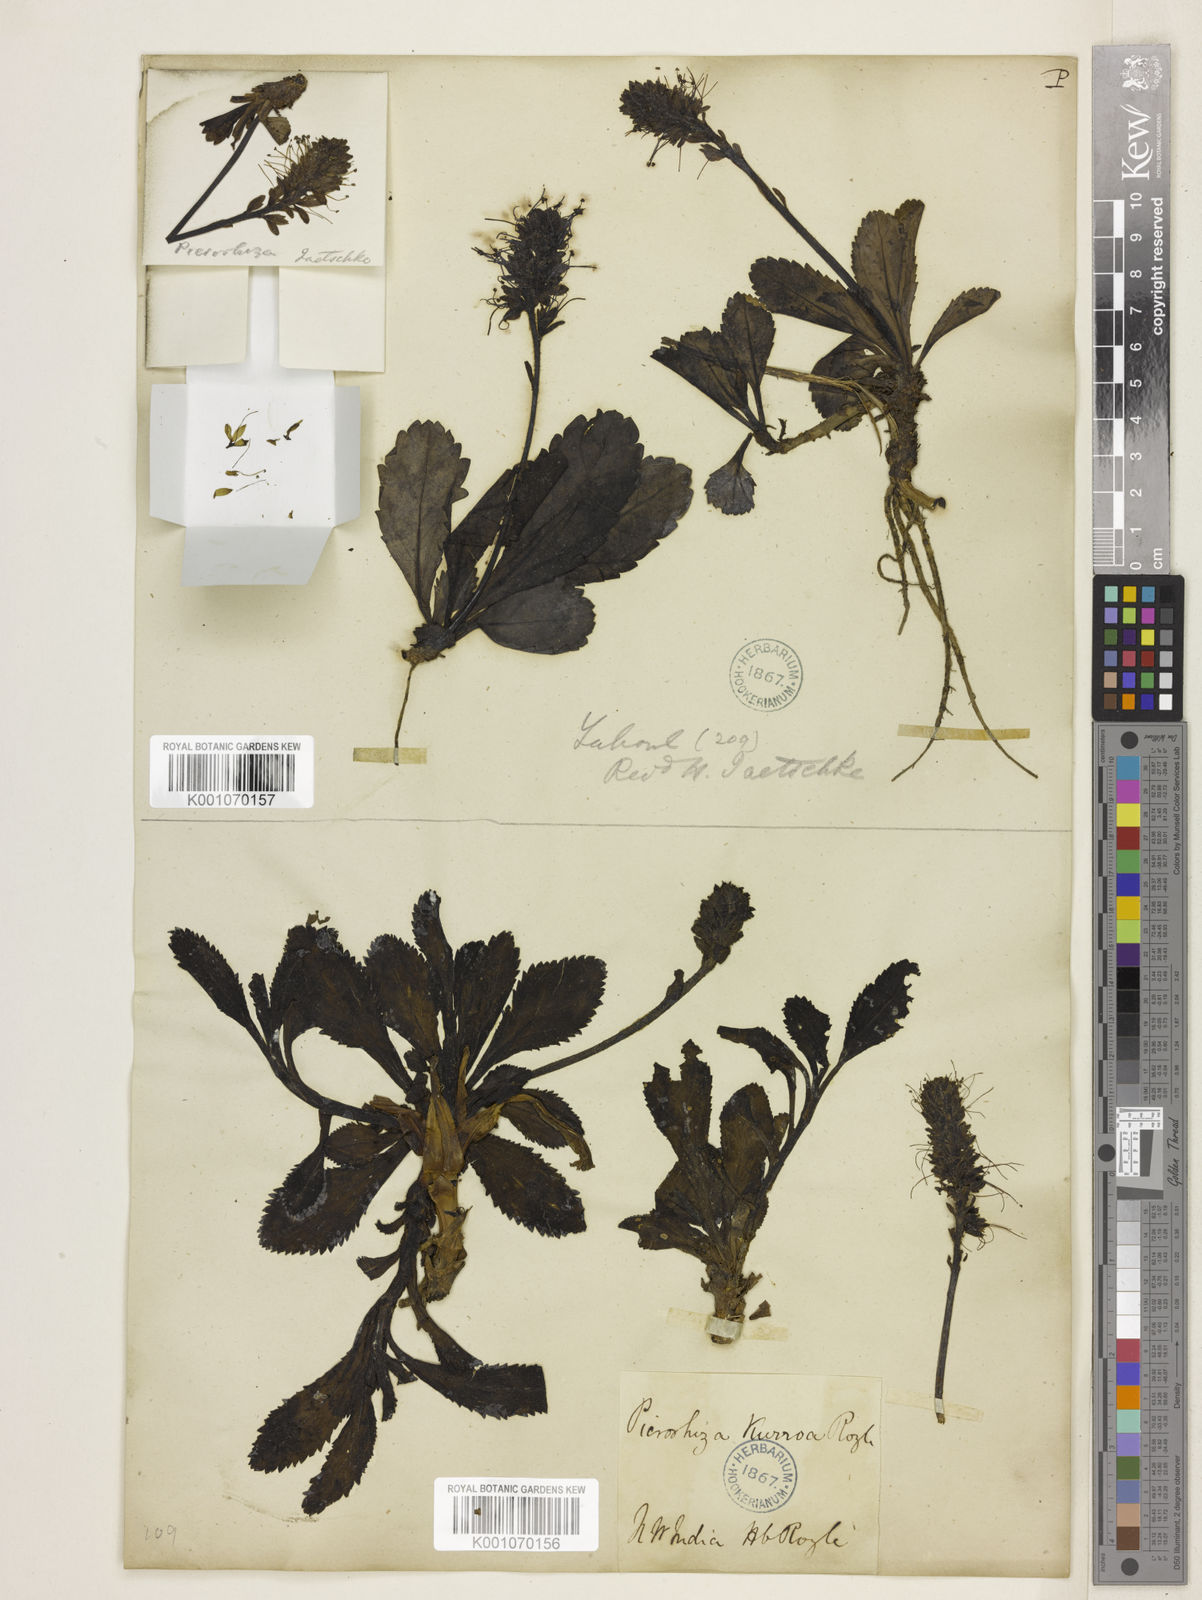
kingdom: Plantae
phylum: Tracheophyta
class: Magnoliopsida
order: Lamiales
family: Plantaginaceae
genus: Picrorhiza
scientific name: Picrorhiza
